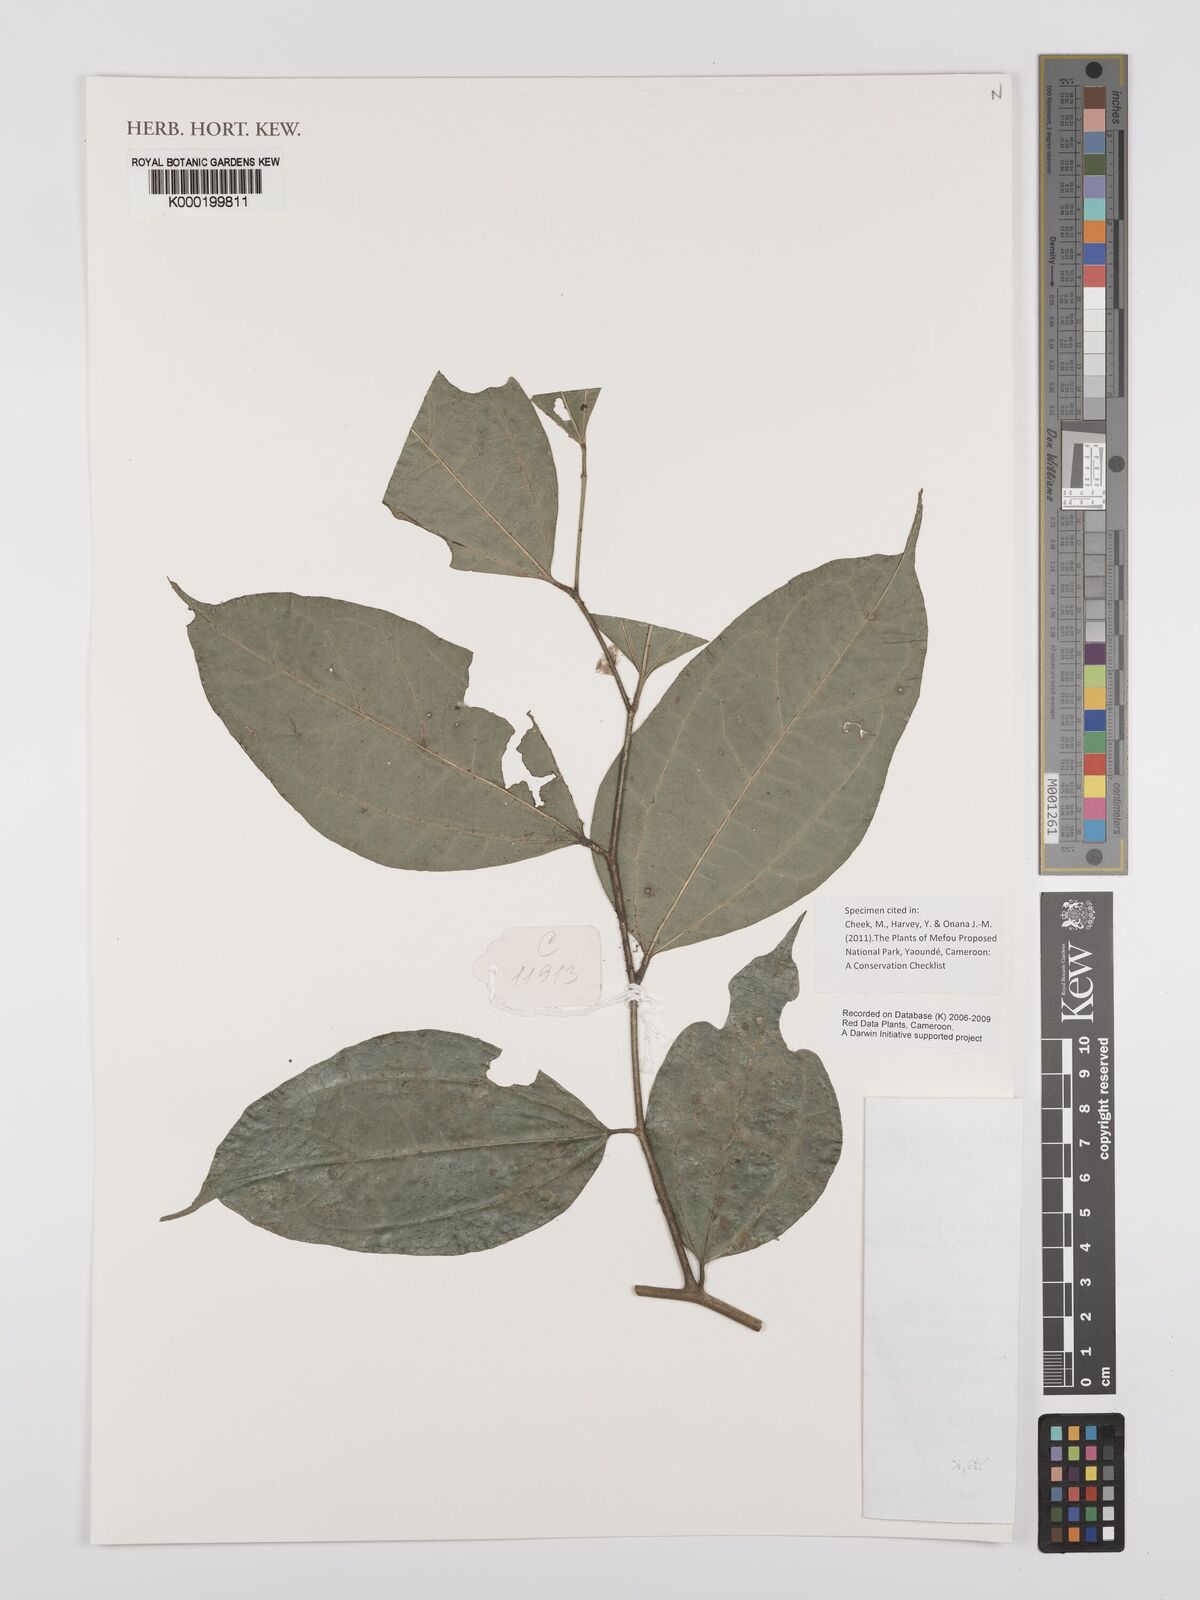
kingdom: Plantae
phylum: Tracheophyta
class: Magnoliopsida
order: Rosales
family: Cannabaceae
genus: Celtis
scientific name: Celtis adolfi-friderici
